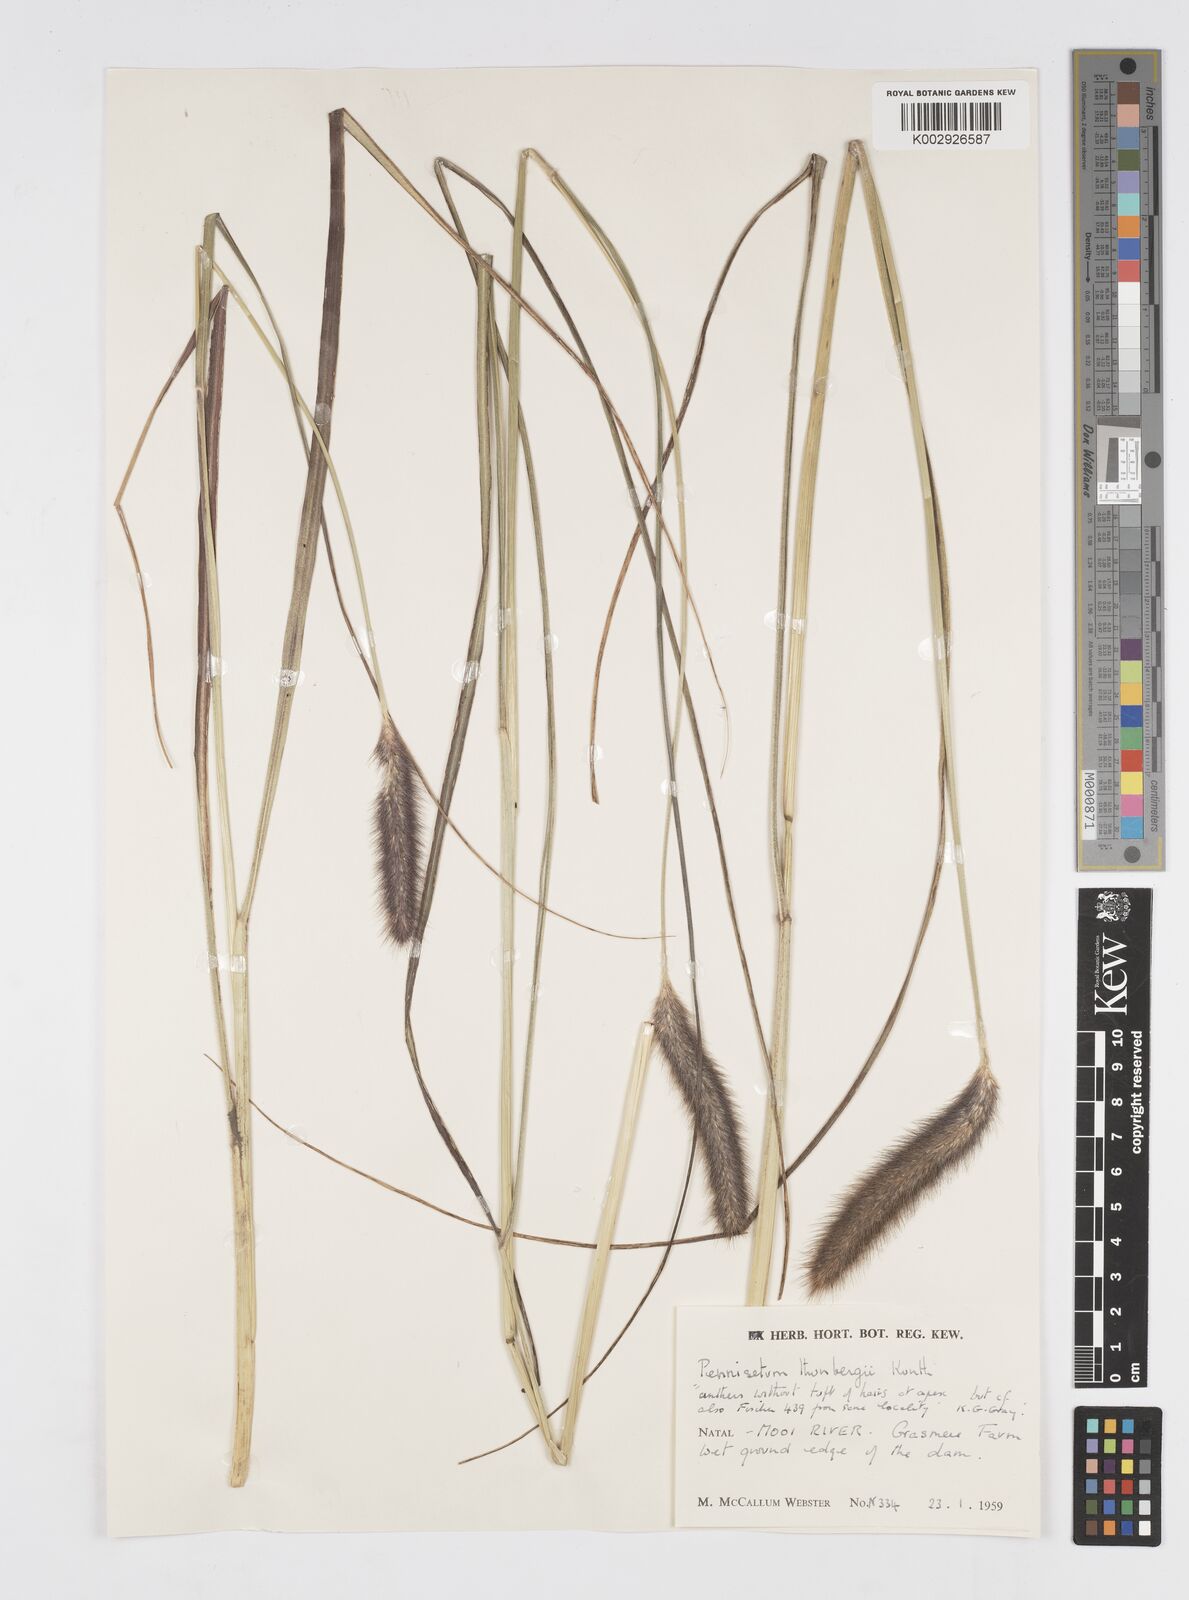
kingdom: Plantae
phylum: Tracheophyta
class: Liliopsida
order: Poales
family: Poaceae
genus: Cenchrus
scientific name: Cenchrus geniculatus
